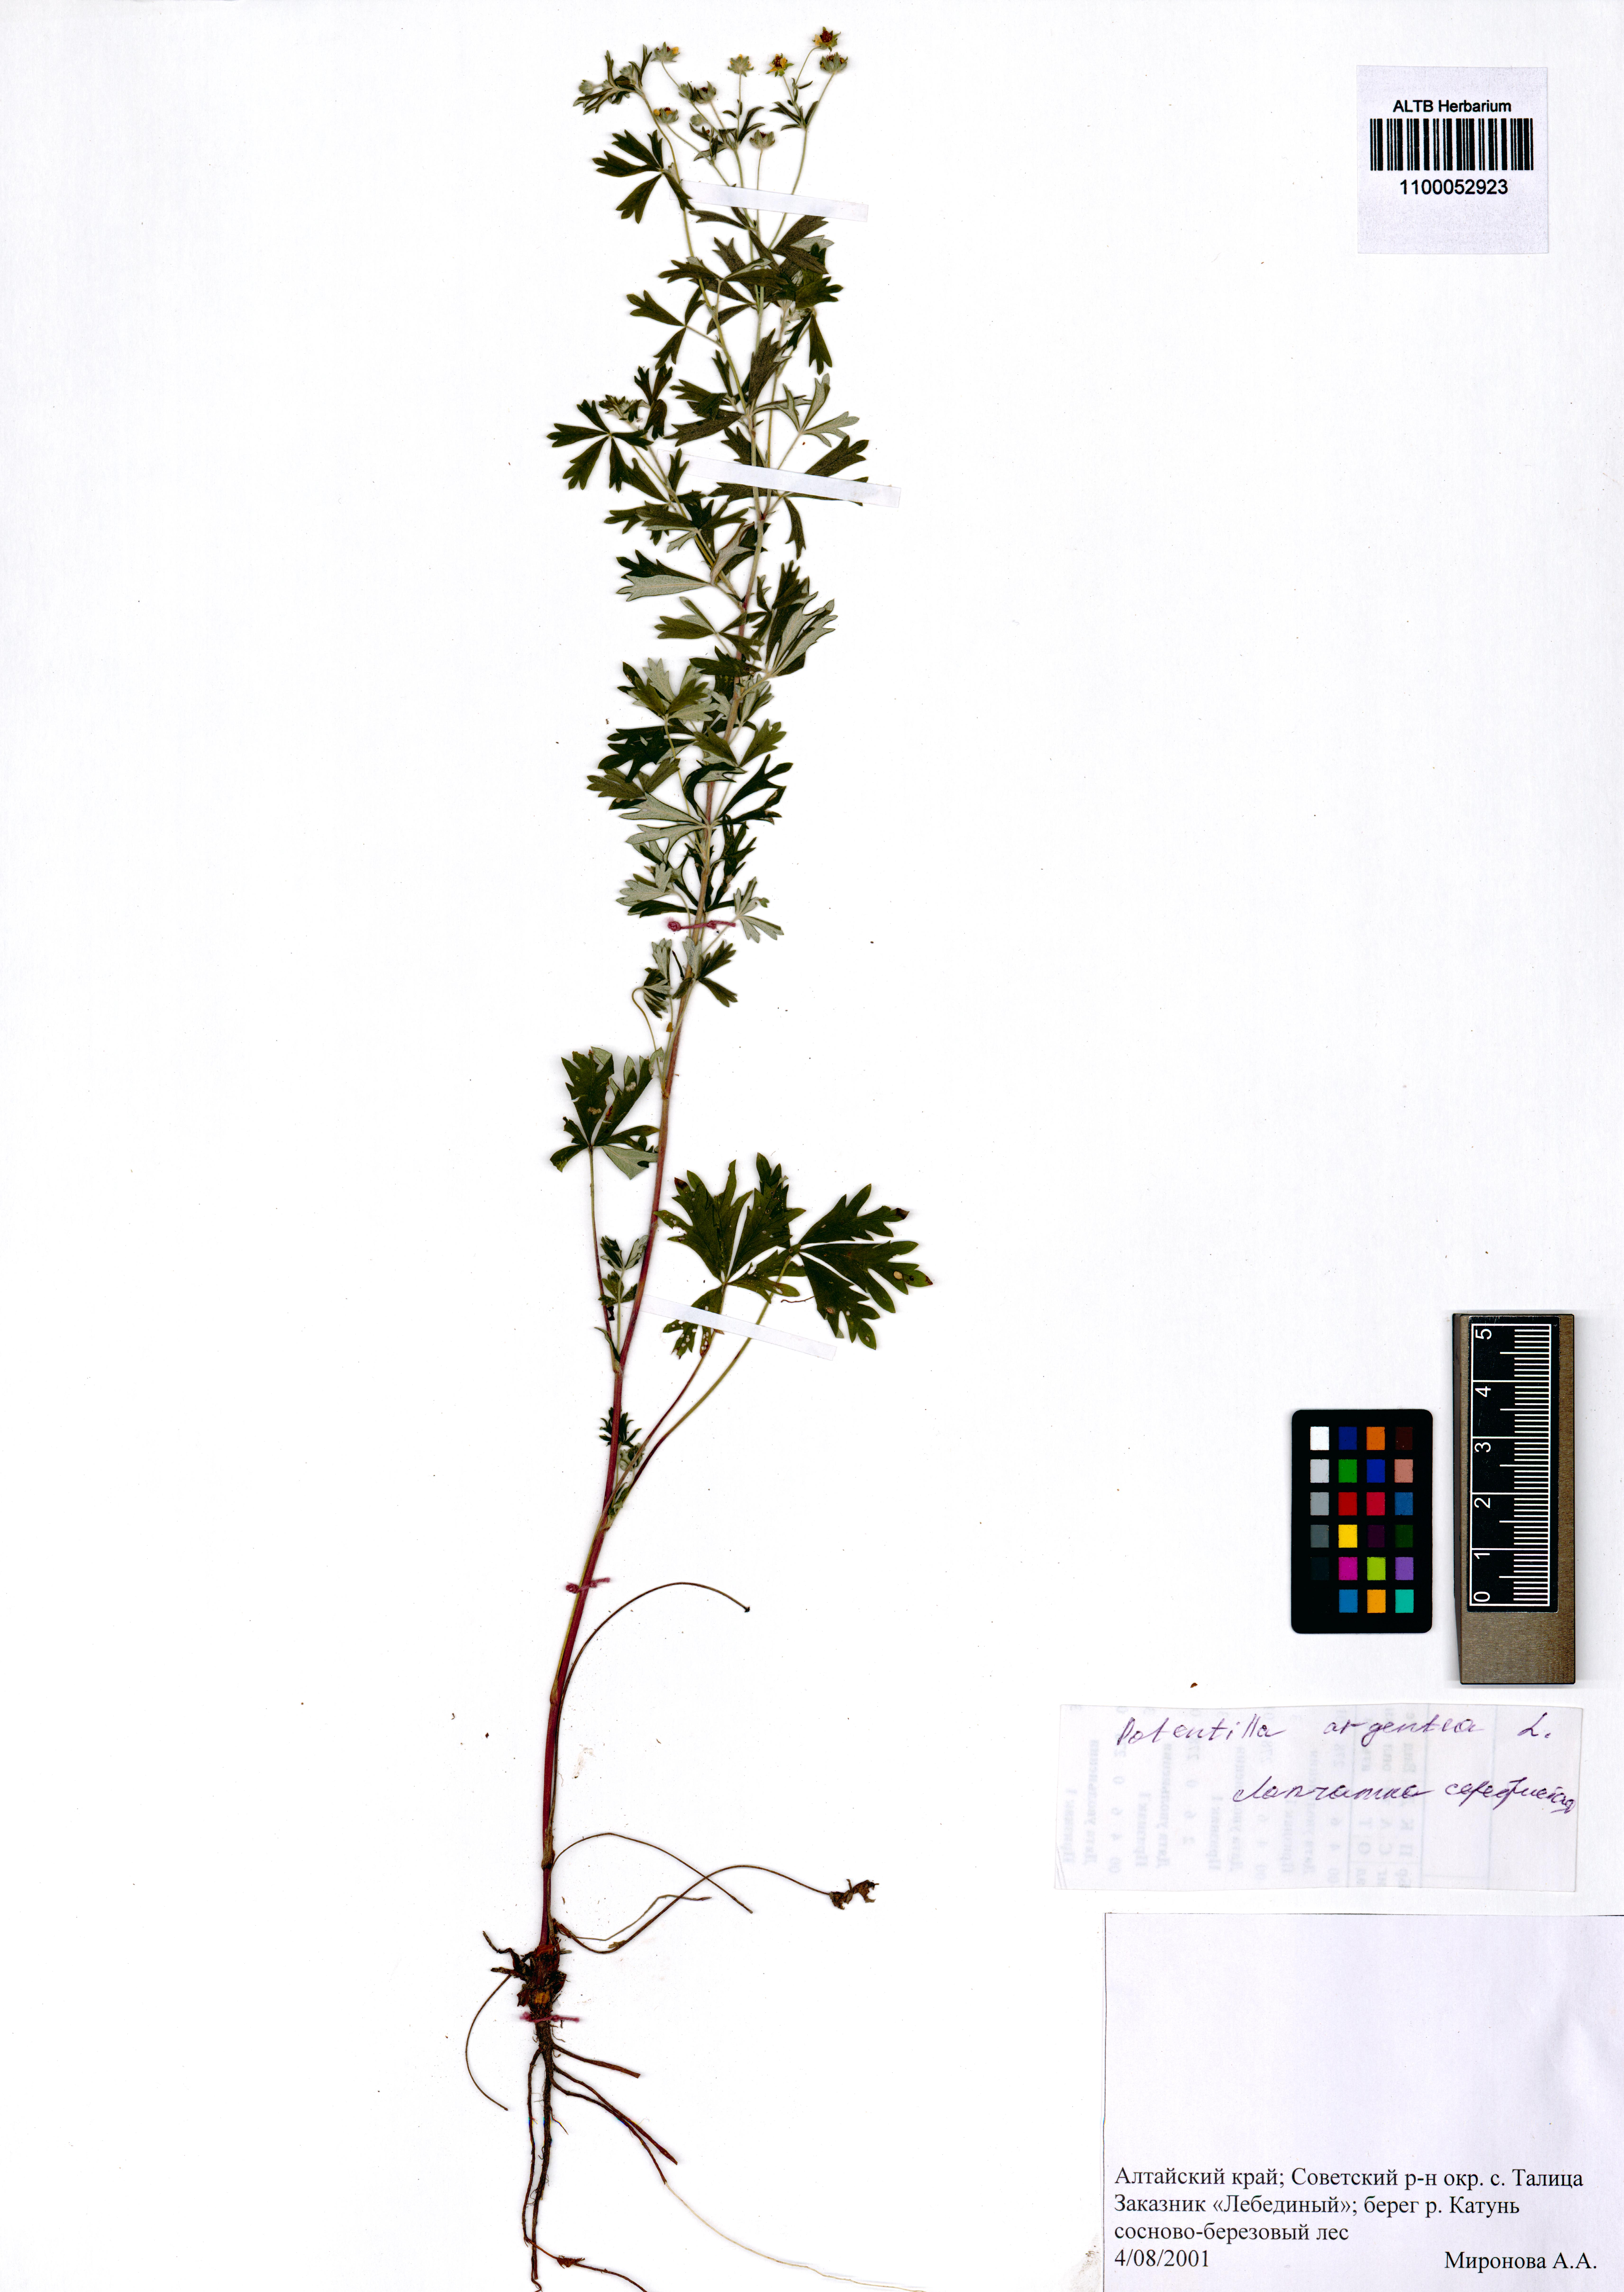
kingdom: Plantae
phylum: Tracheophyta
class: Magnoliopsida
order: Rosales
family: Rosaceae
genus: Potentilla
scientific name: Potentilla argentea
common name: Hoary cinquefoil
